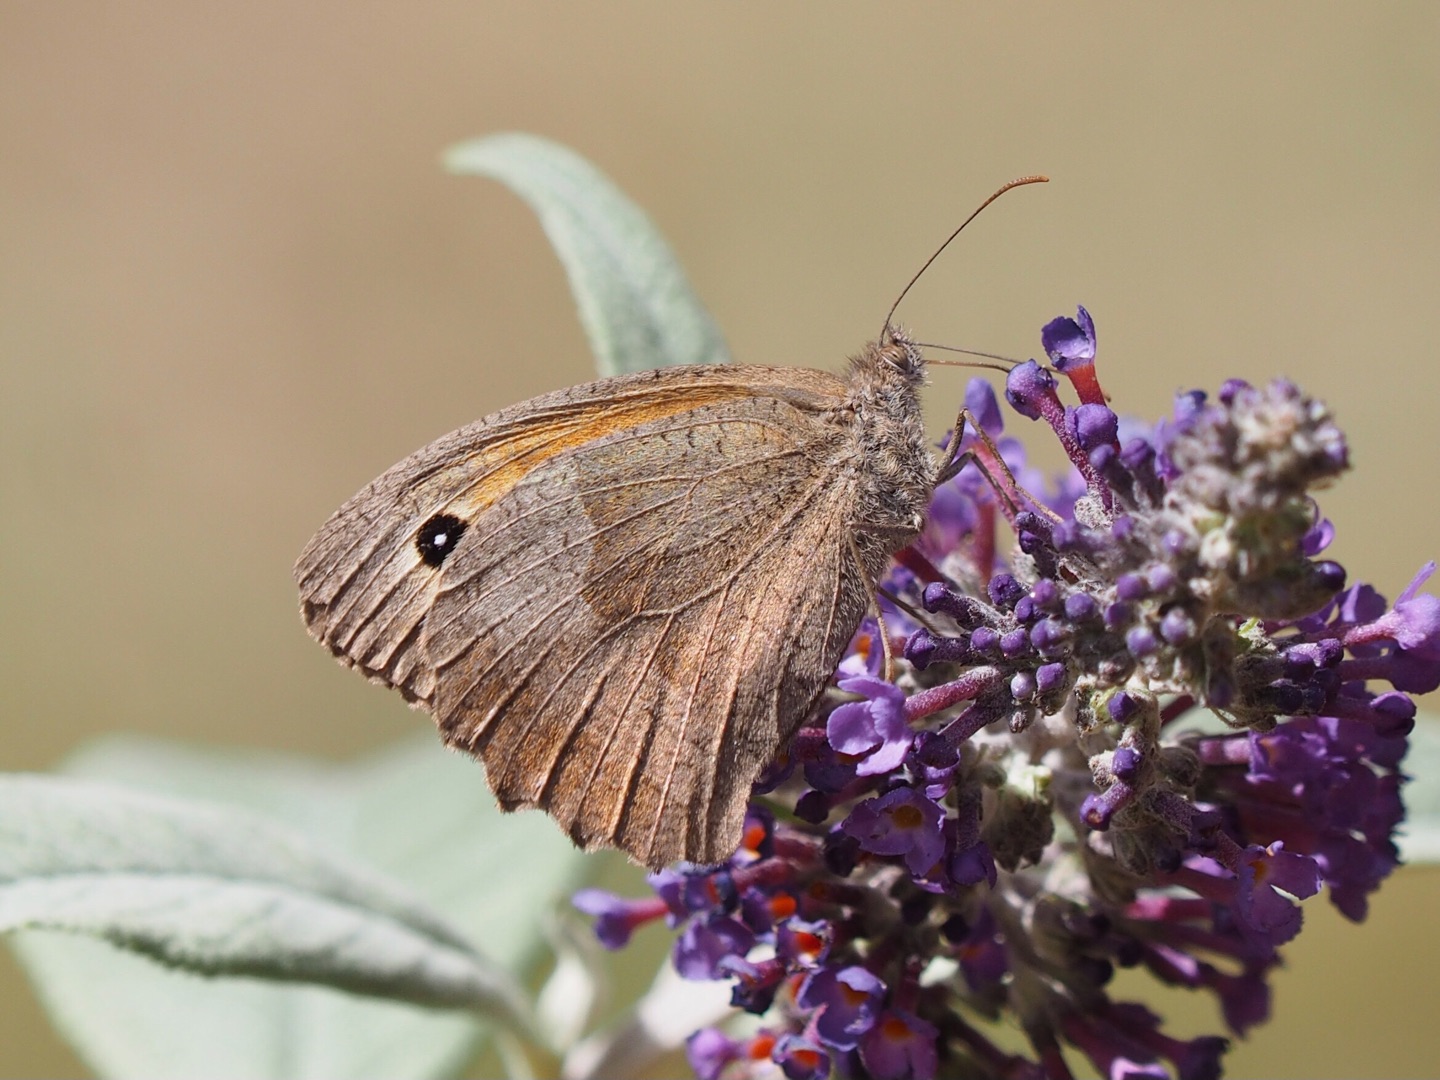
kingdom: Animalia
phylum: Arthropoda
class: Insecta
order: Lepidoptera
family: Nymphalidae
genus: Maniola
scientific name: Maniola jurtina
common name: Græsrandøje
